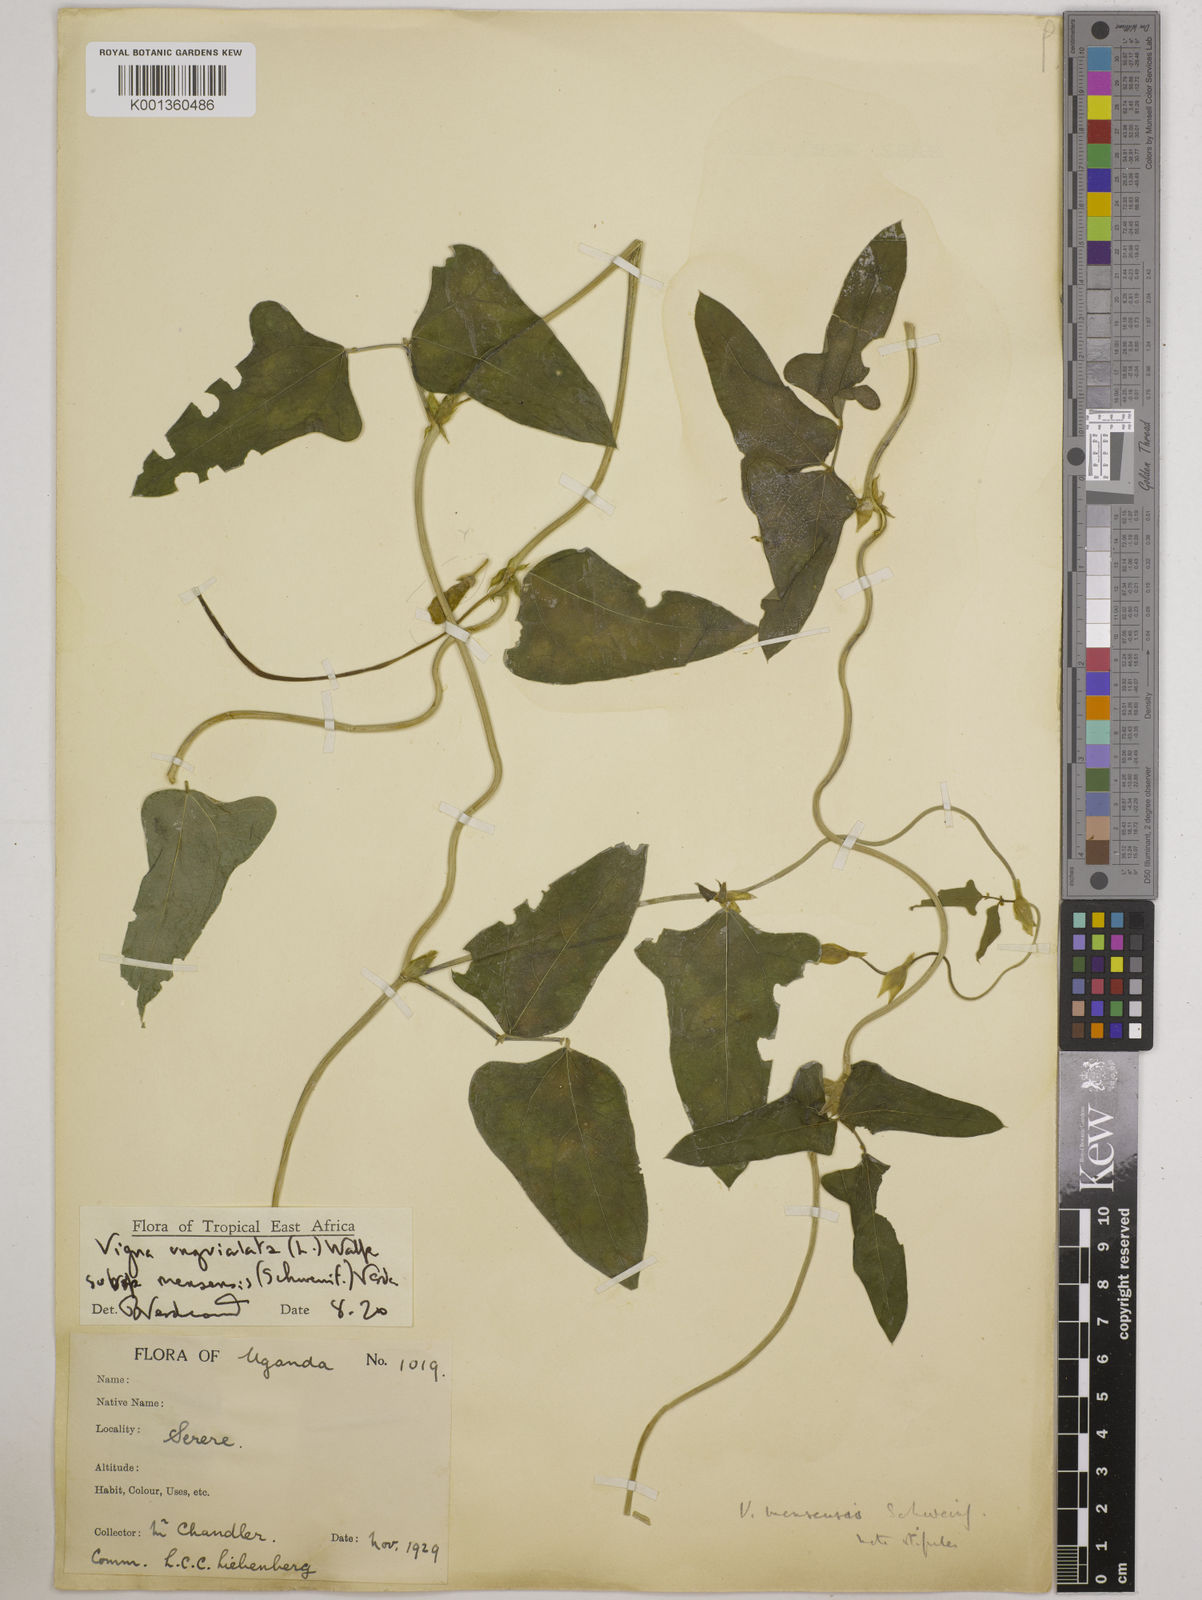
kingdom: Plantae
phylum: Tracheophyta
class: Magnoliopsida
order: Fabales
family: Fabaceae
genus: Vigna
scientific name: Vigna unguiculata
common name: Cowpea
